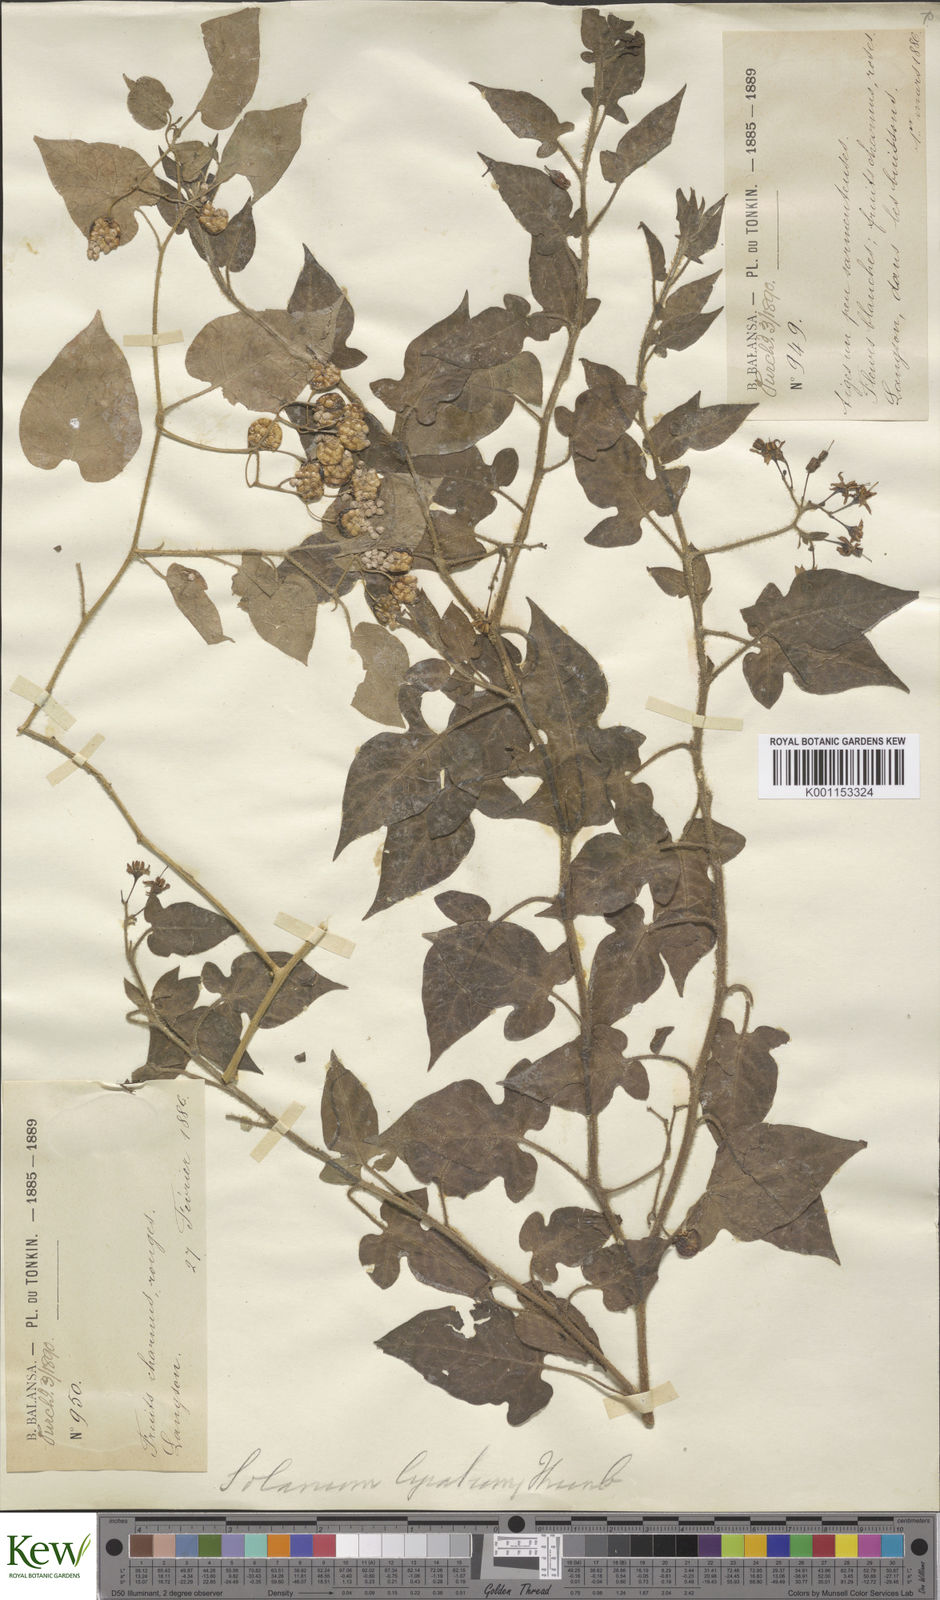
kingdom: Plantae
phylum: Tracheophyta
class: Magnoliopsida
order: Solanales
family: Solanaceae
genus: Solanum
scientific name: Solanum lyratum
